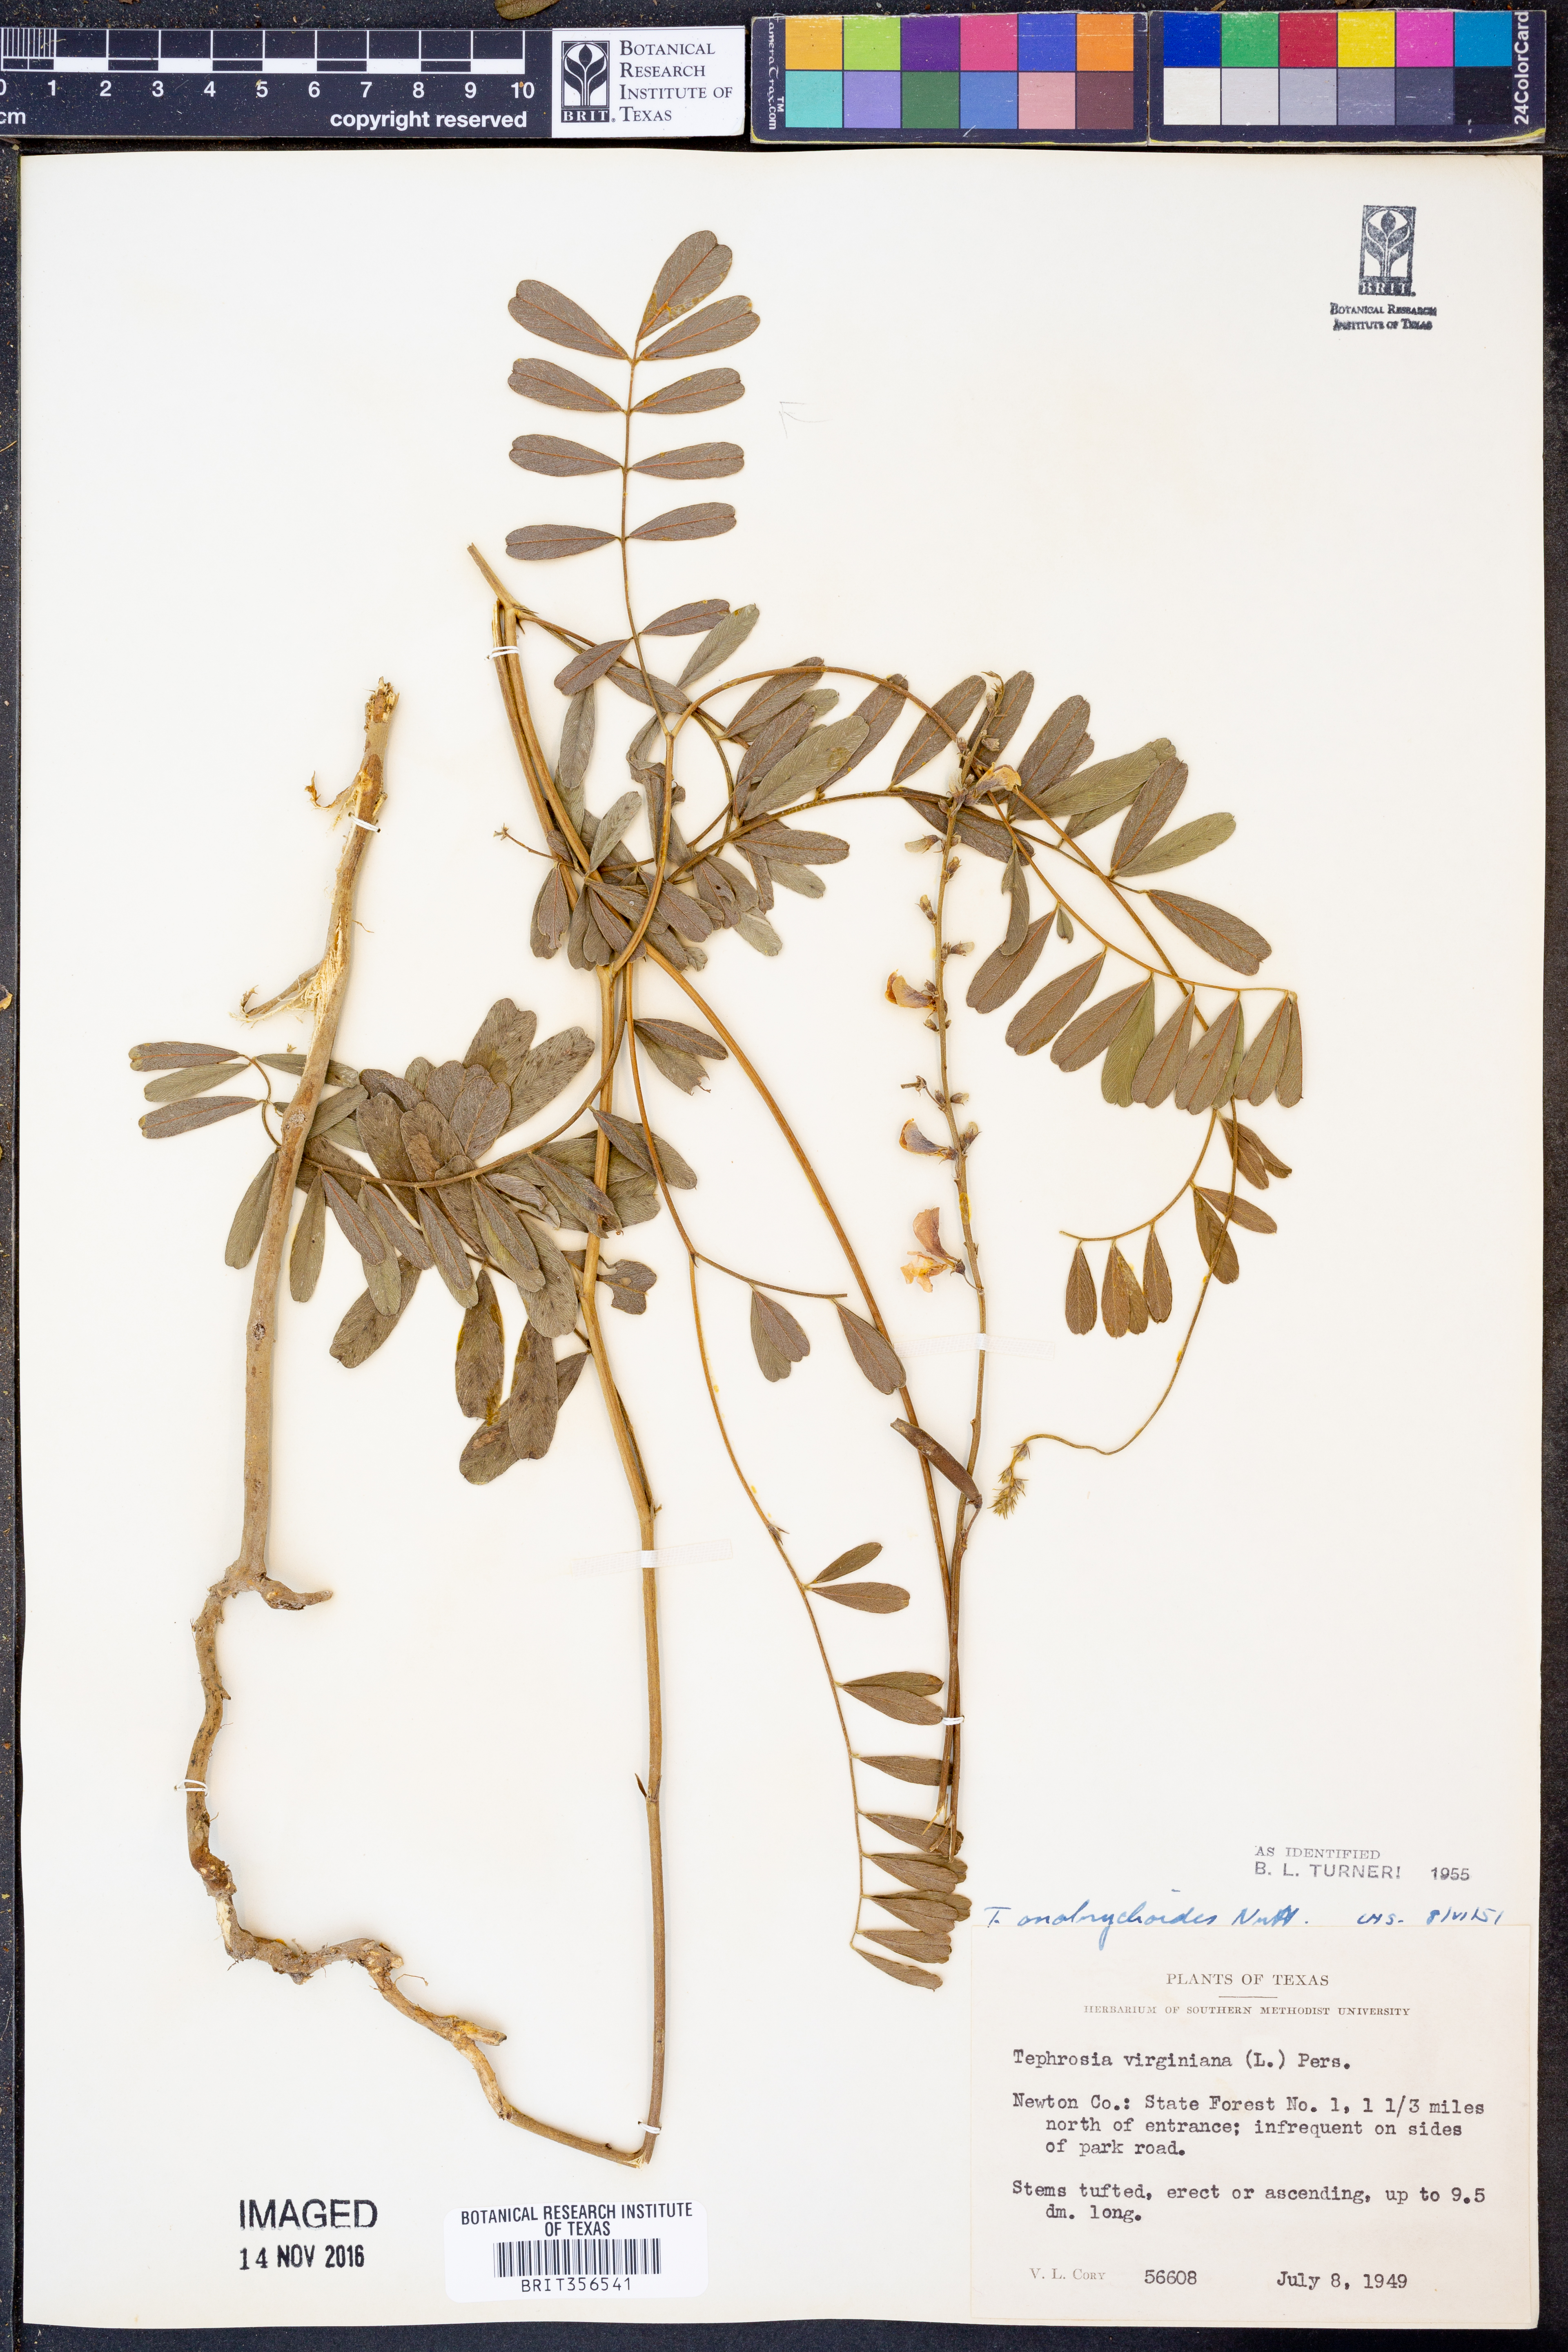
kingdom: Plantae
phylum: Tracheophyta
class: Magnoliopsida
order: Fabales
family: Fabaceae
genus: Tephrosia
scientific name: Tephrosia onobrychoides
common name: Multi-bloom hoary-pea
